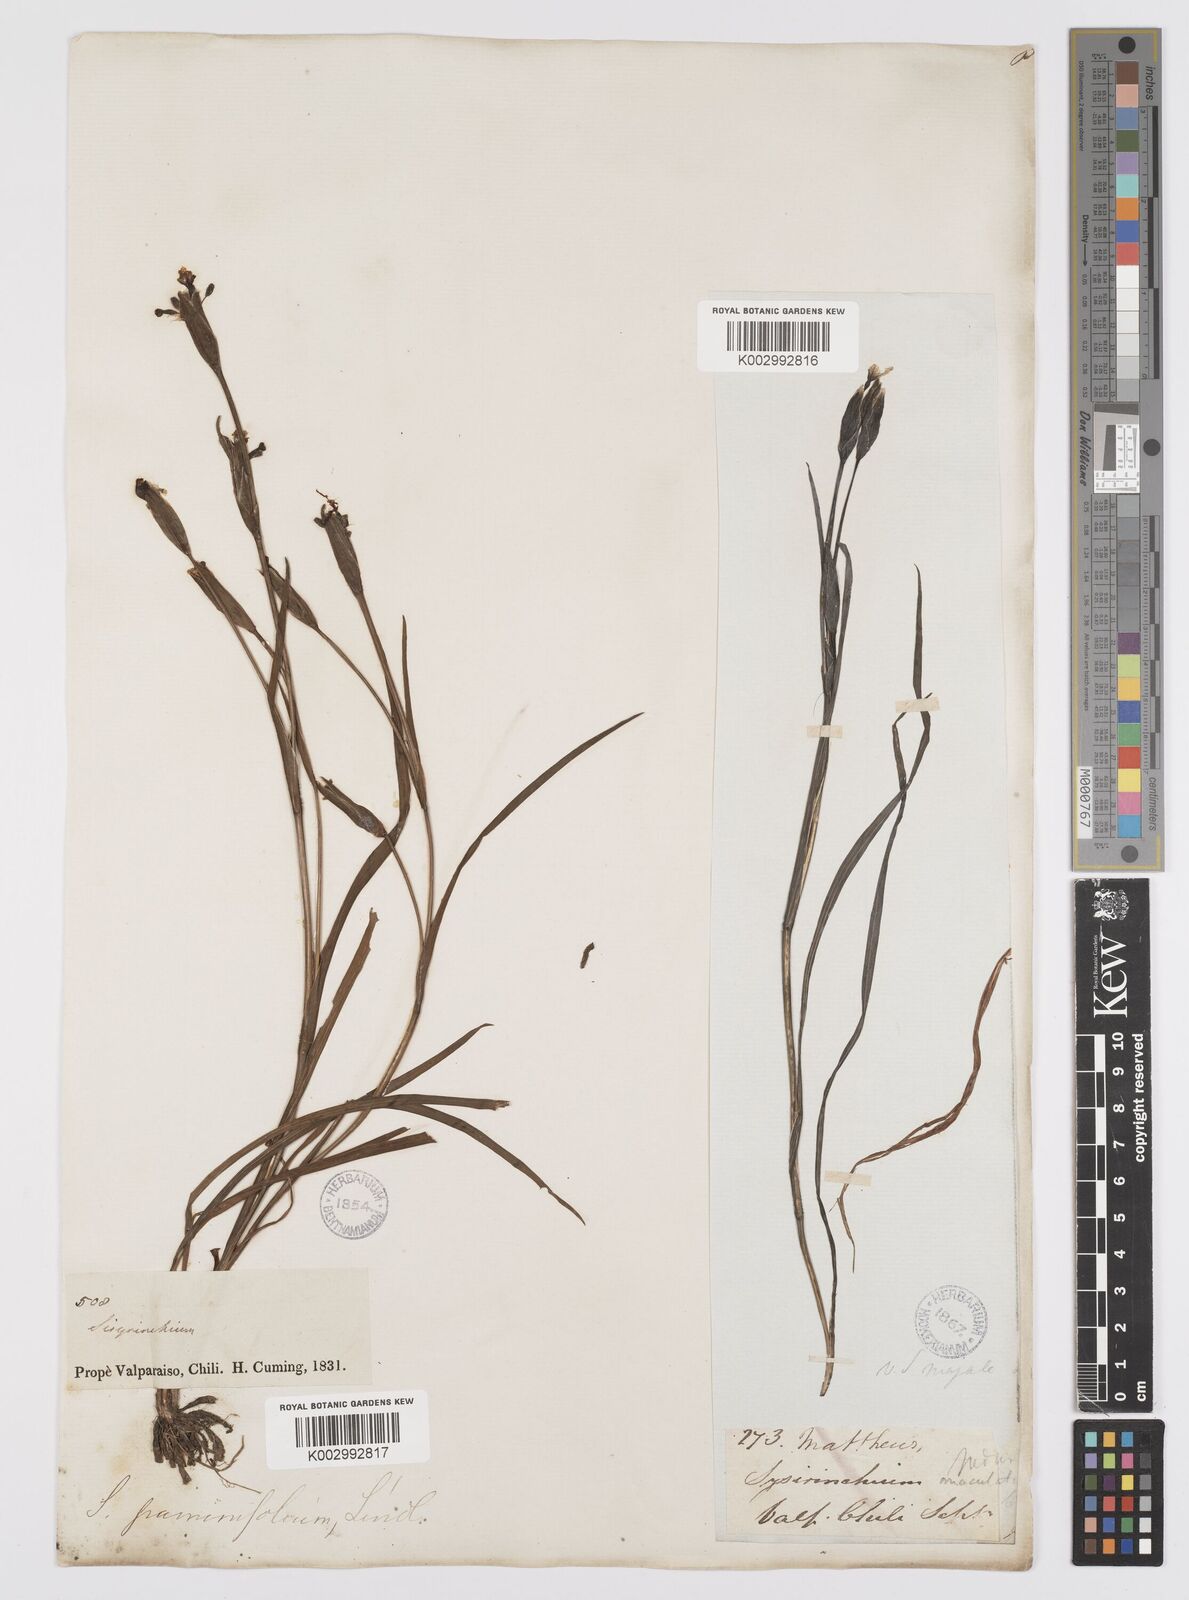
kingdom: Plantae
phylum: Tracheophyta
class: Liliopsida
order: Asparagales
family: Iridaceae
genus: Sisyrinchium
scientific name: Sisyrinchium graminifolium
